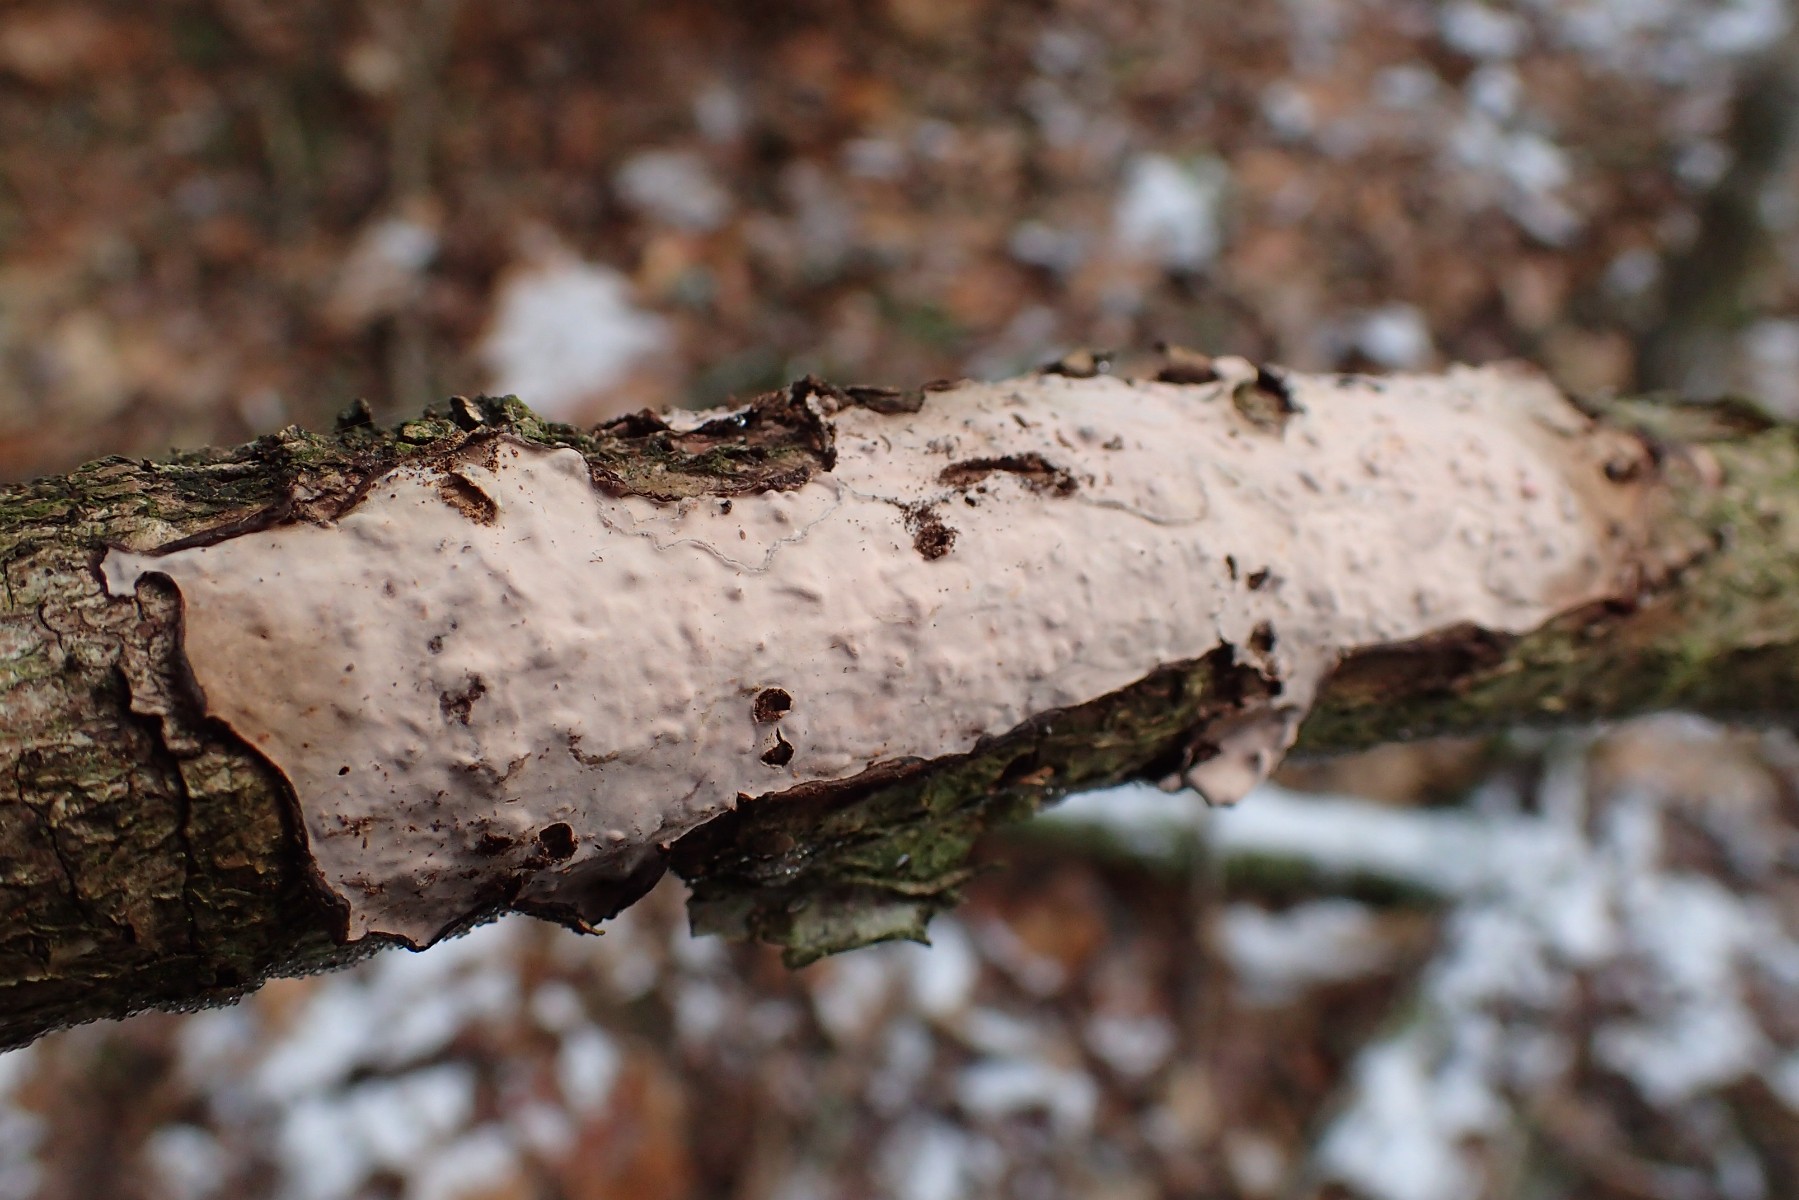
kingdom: Fungi
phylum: Basidiomycota
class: Agaricomycetes
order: Russulales
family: Peniophoraceae
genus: Peniophora
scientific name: Peniophora quercina
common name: ege-voksskind
